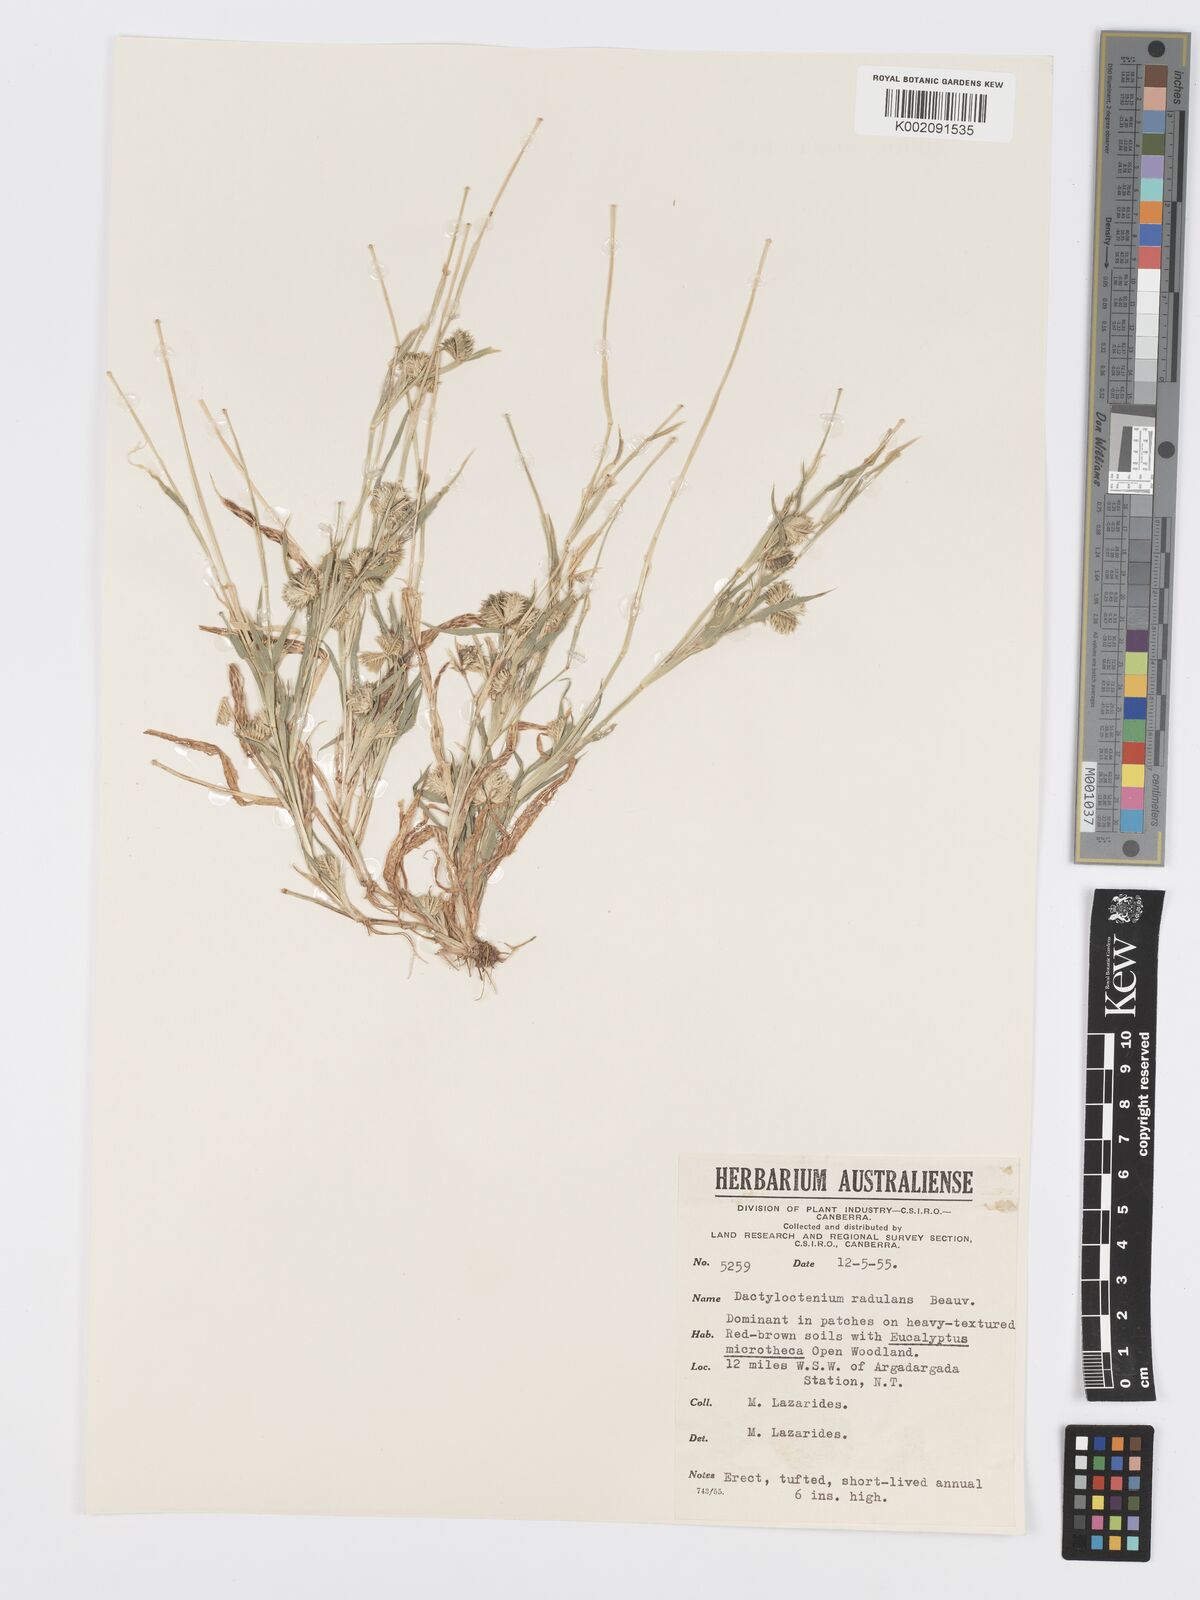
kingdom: Plantae
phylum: Tracheophyta
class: Liliopsida
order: Poales
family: Poaceae
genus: Dactyloctenium
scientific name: Dactyloctenium radulans
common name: Button-grass
